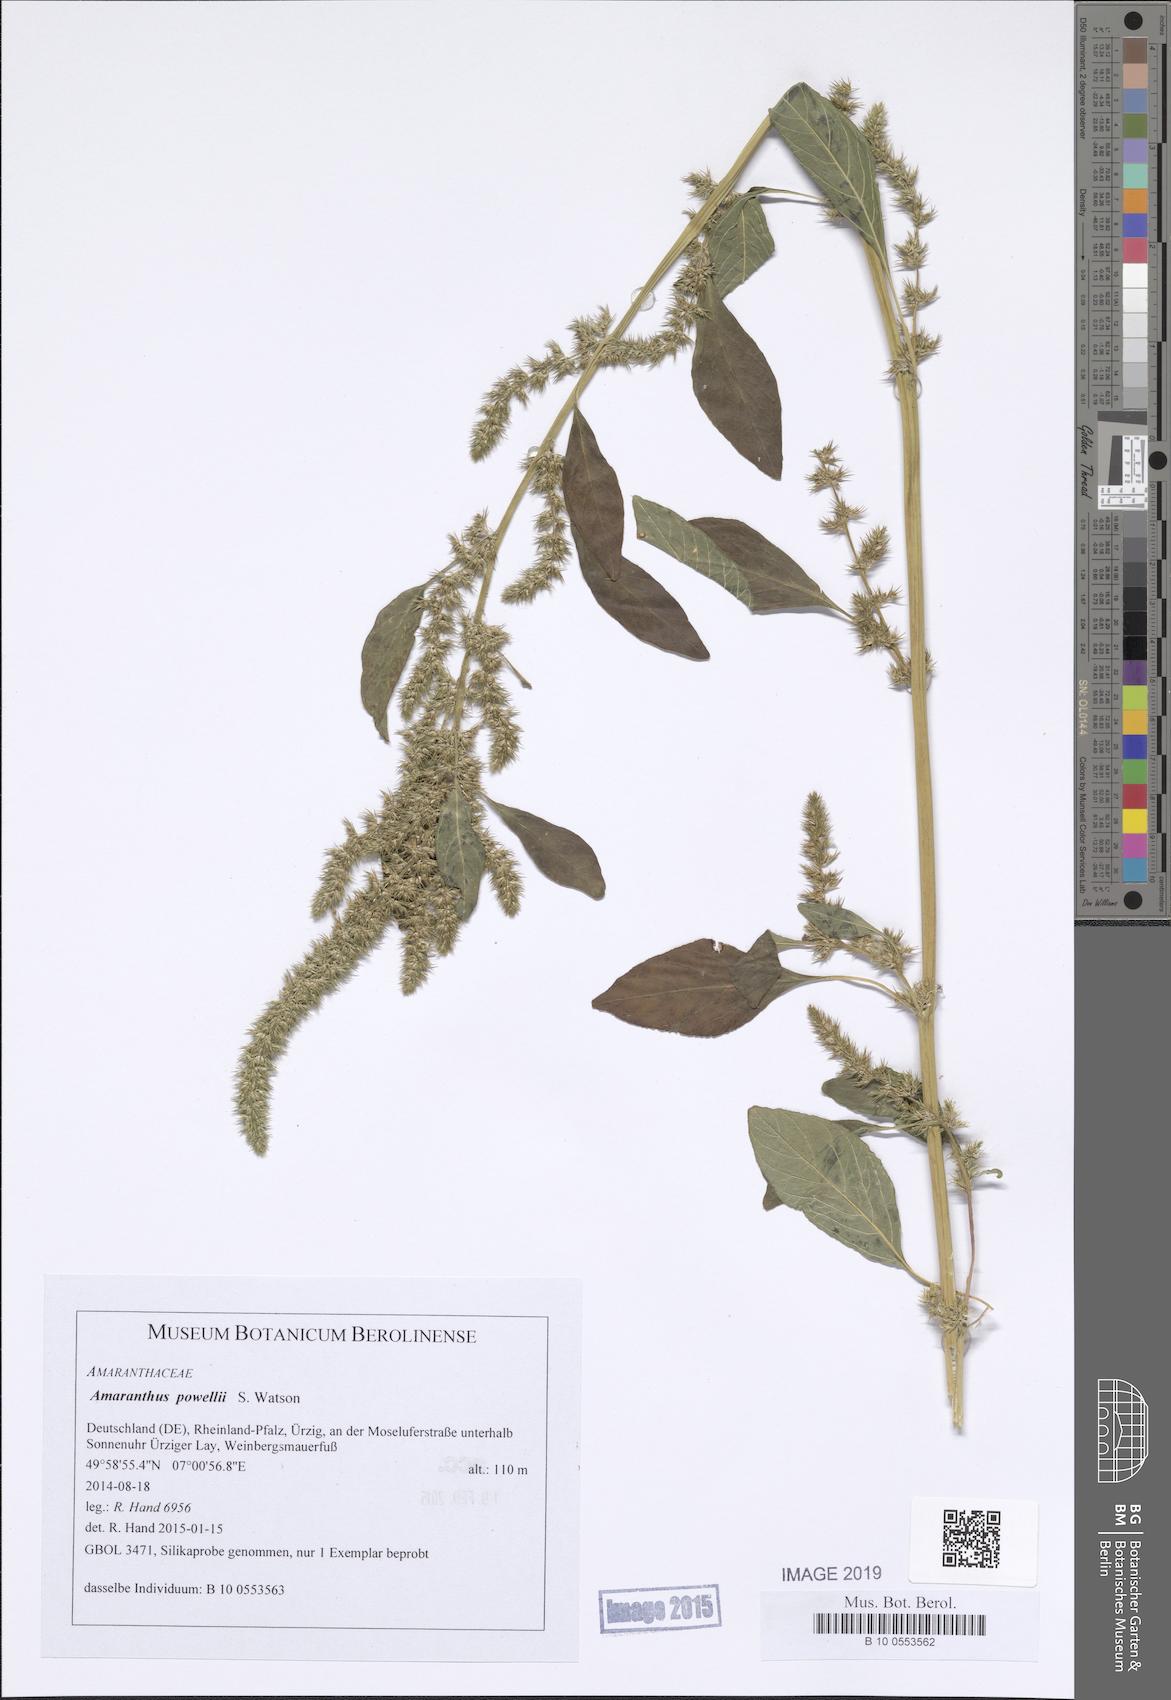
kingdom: Plantae
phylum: Tracheophyta
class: Magnoliopsida
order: Caryophyllales
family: Amaranthaceae
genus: Amaranthus
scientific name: Amaranthus powellii
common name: Powell's amaranth
